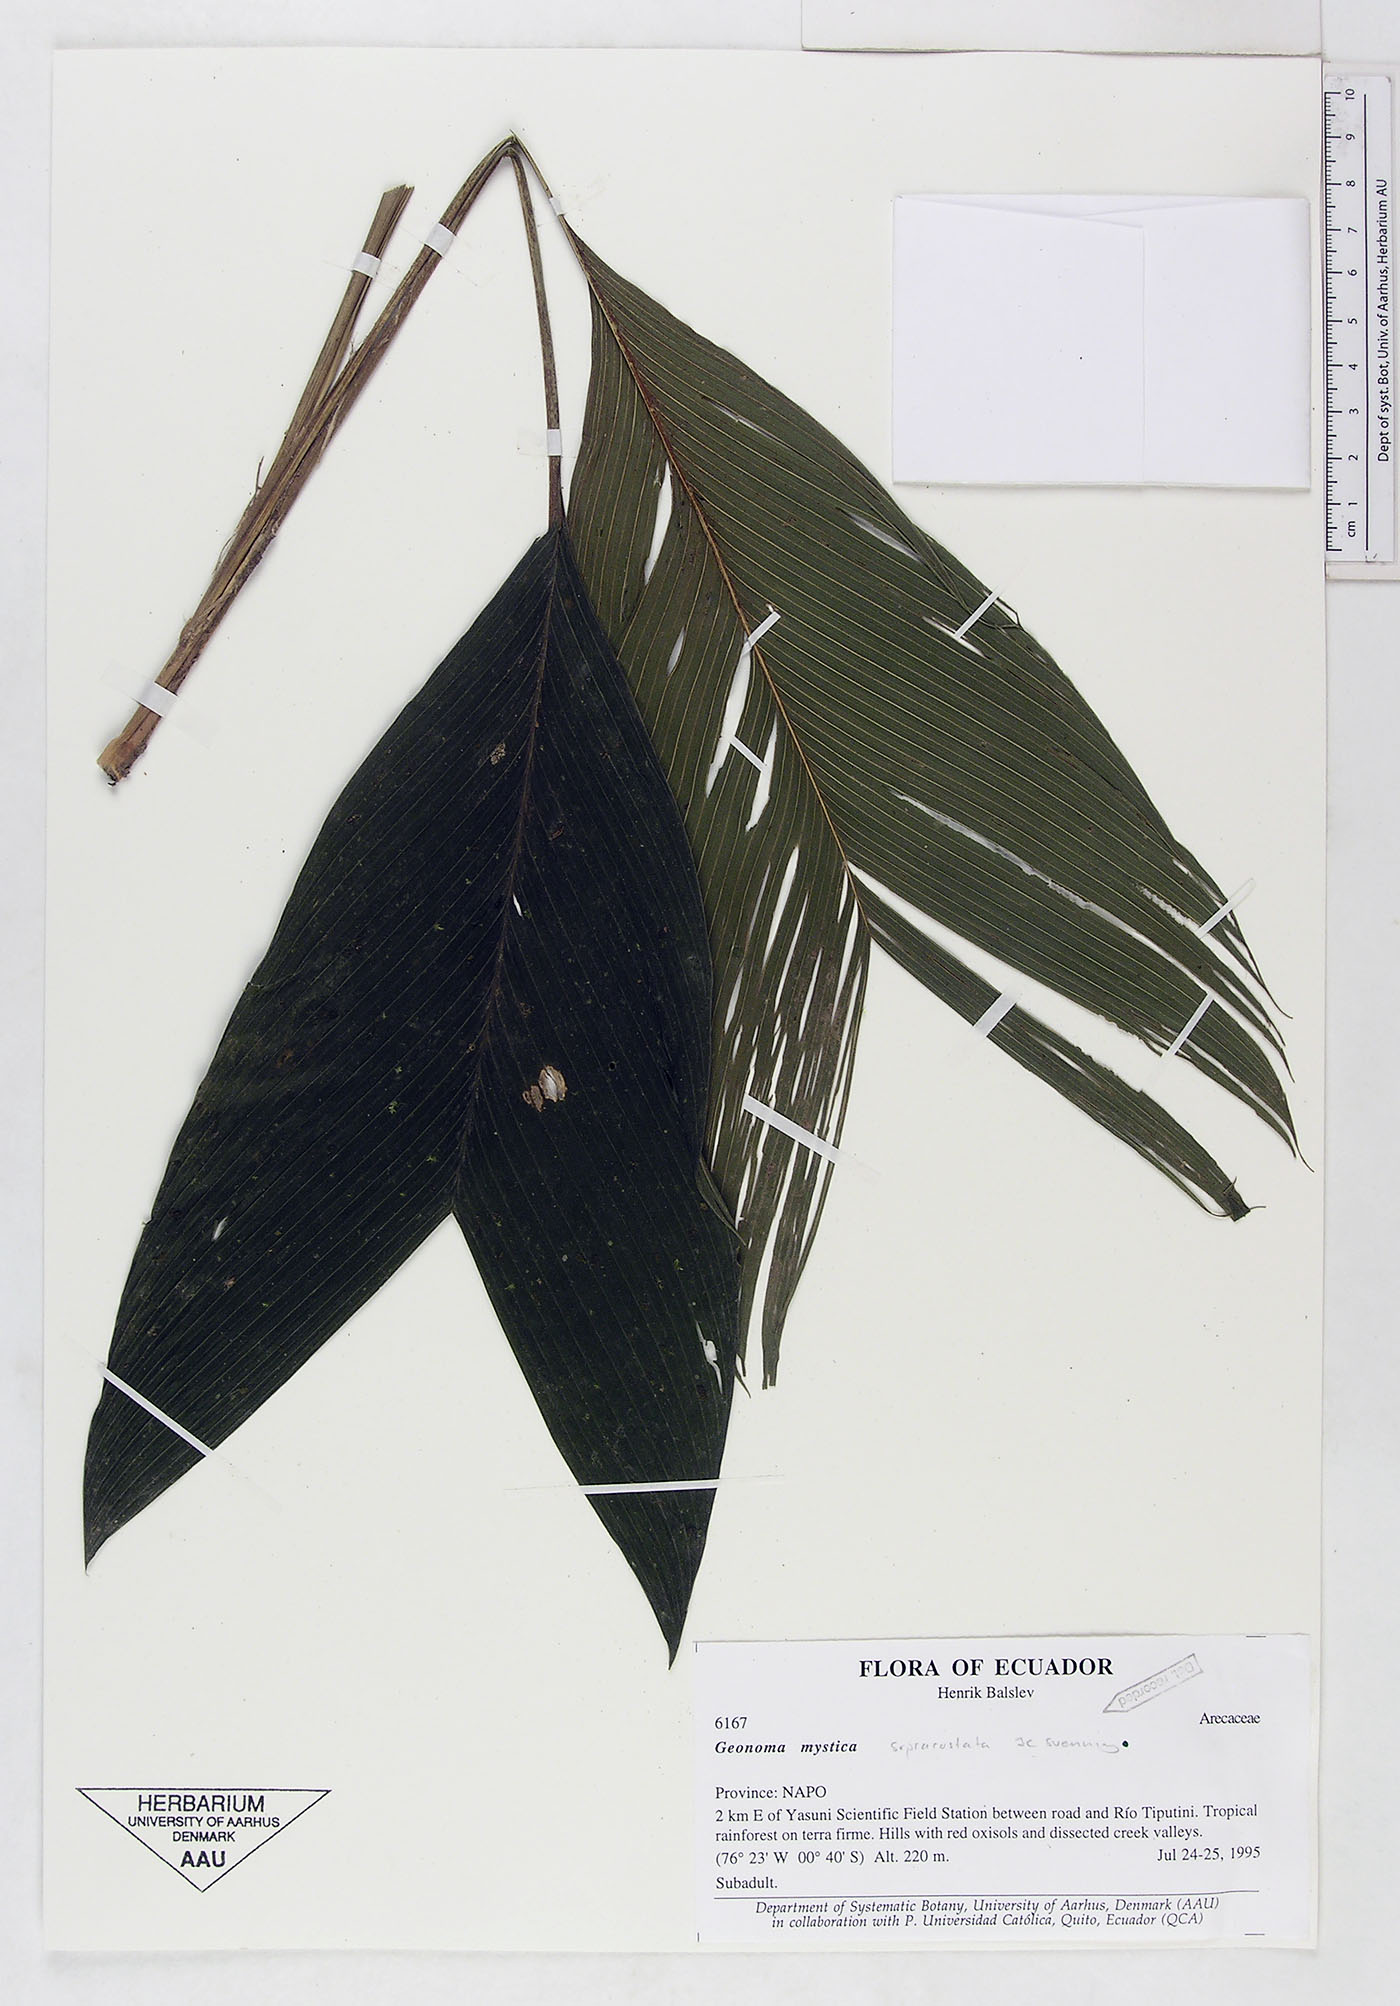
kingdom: Plantae
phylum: Tracheophyta
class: Liliopsida
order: Arecales
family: Arecaceae
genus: Geonoma
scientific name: Geonoma macrostachys
